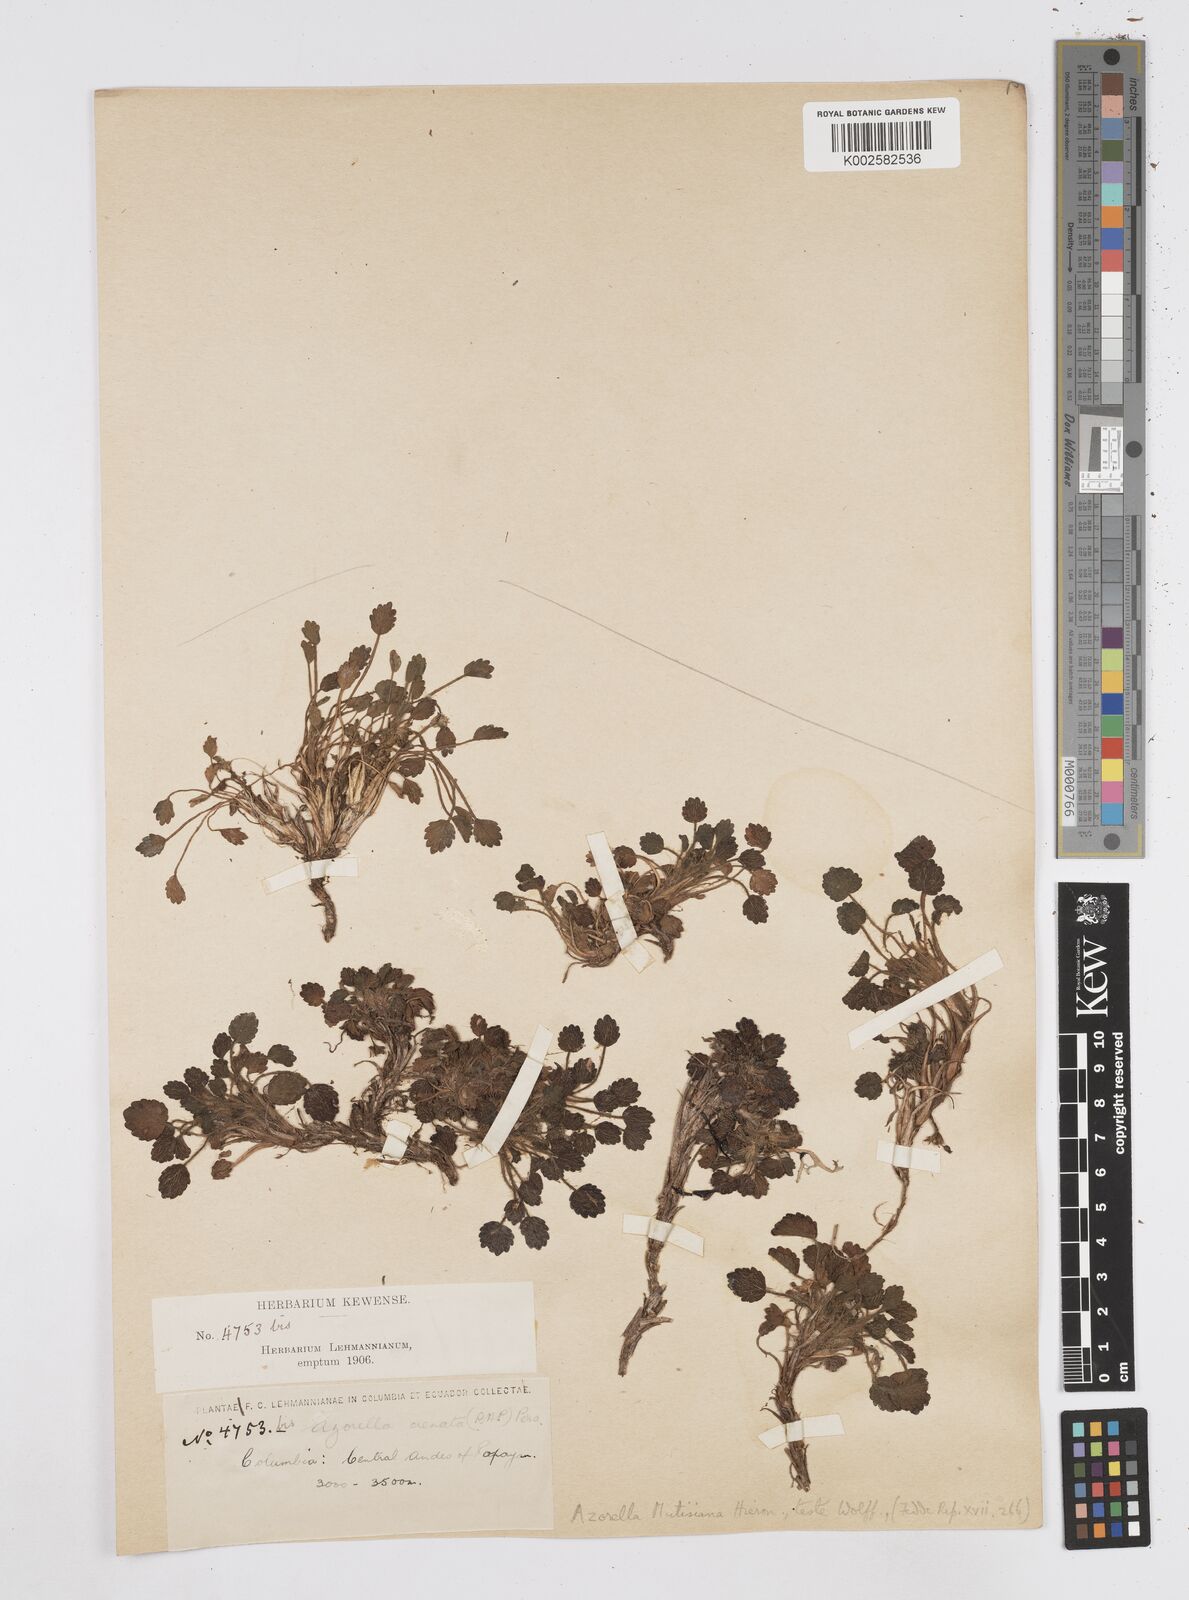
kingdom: Plantae
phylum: Tracheophyta
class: Magnoliopsida
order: Apiales
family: Apiaceae
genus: Azorella
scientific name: Azorella crenata
